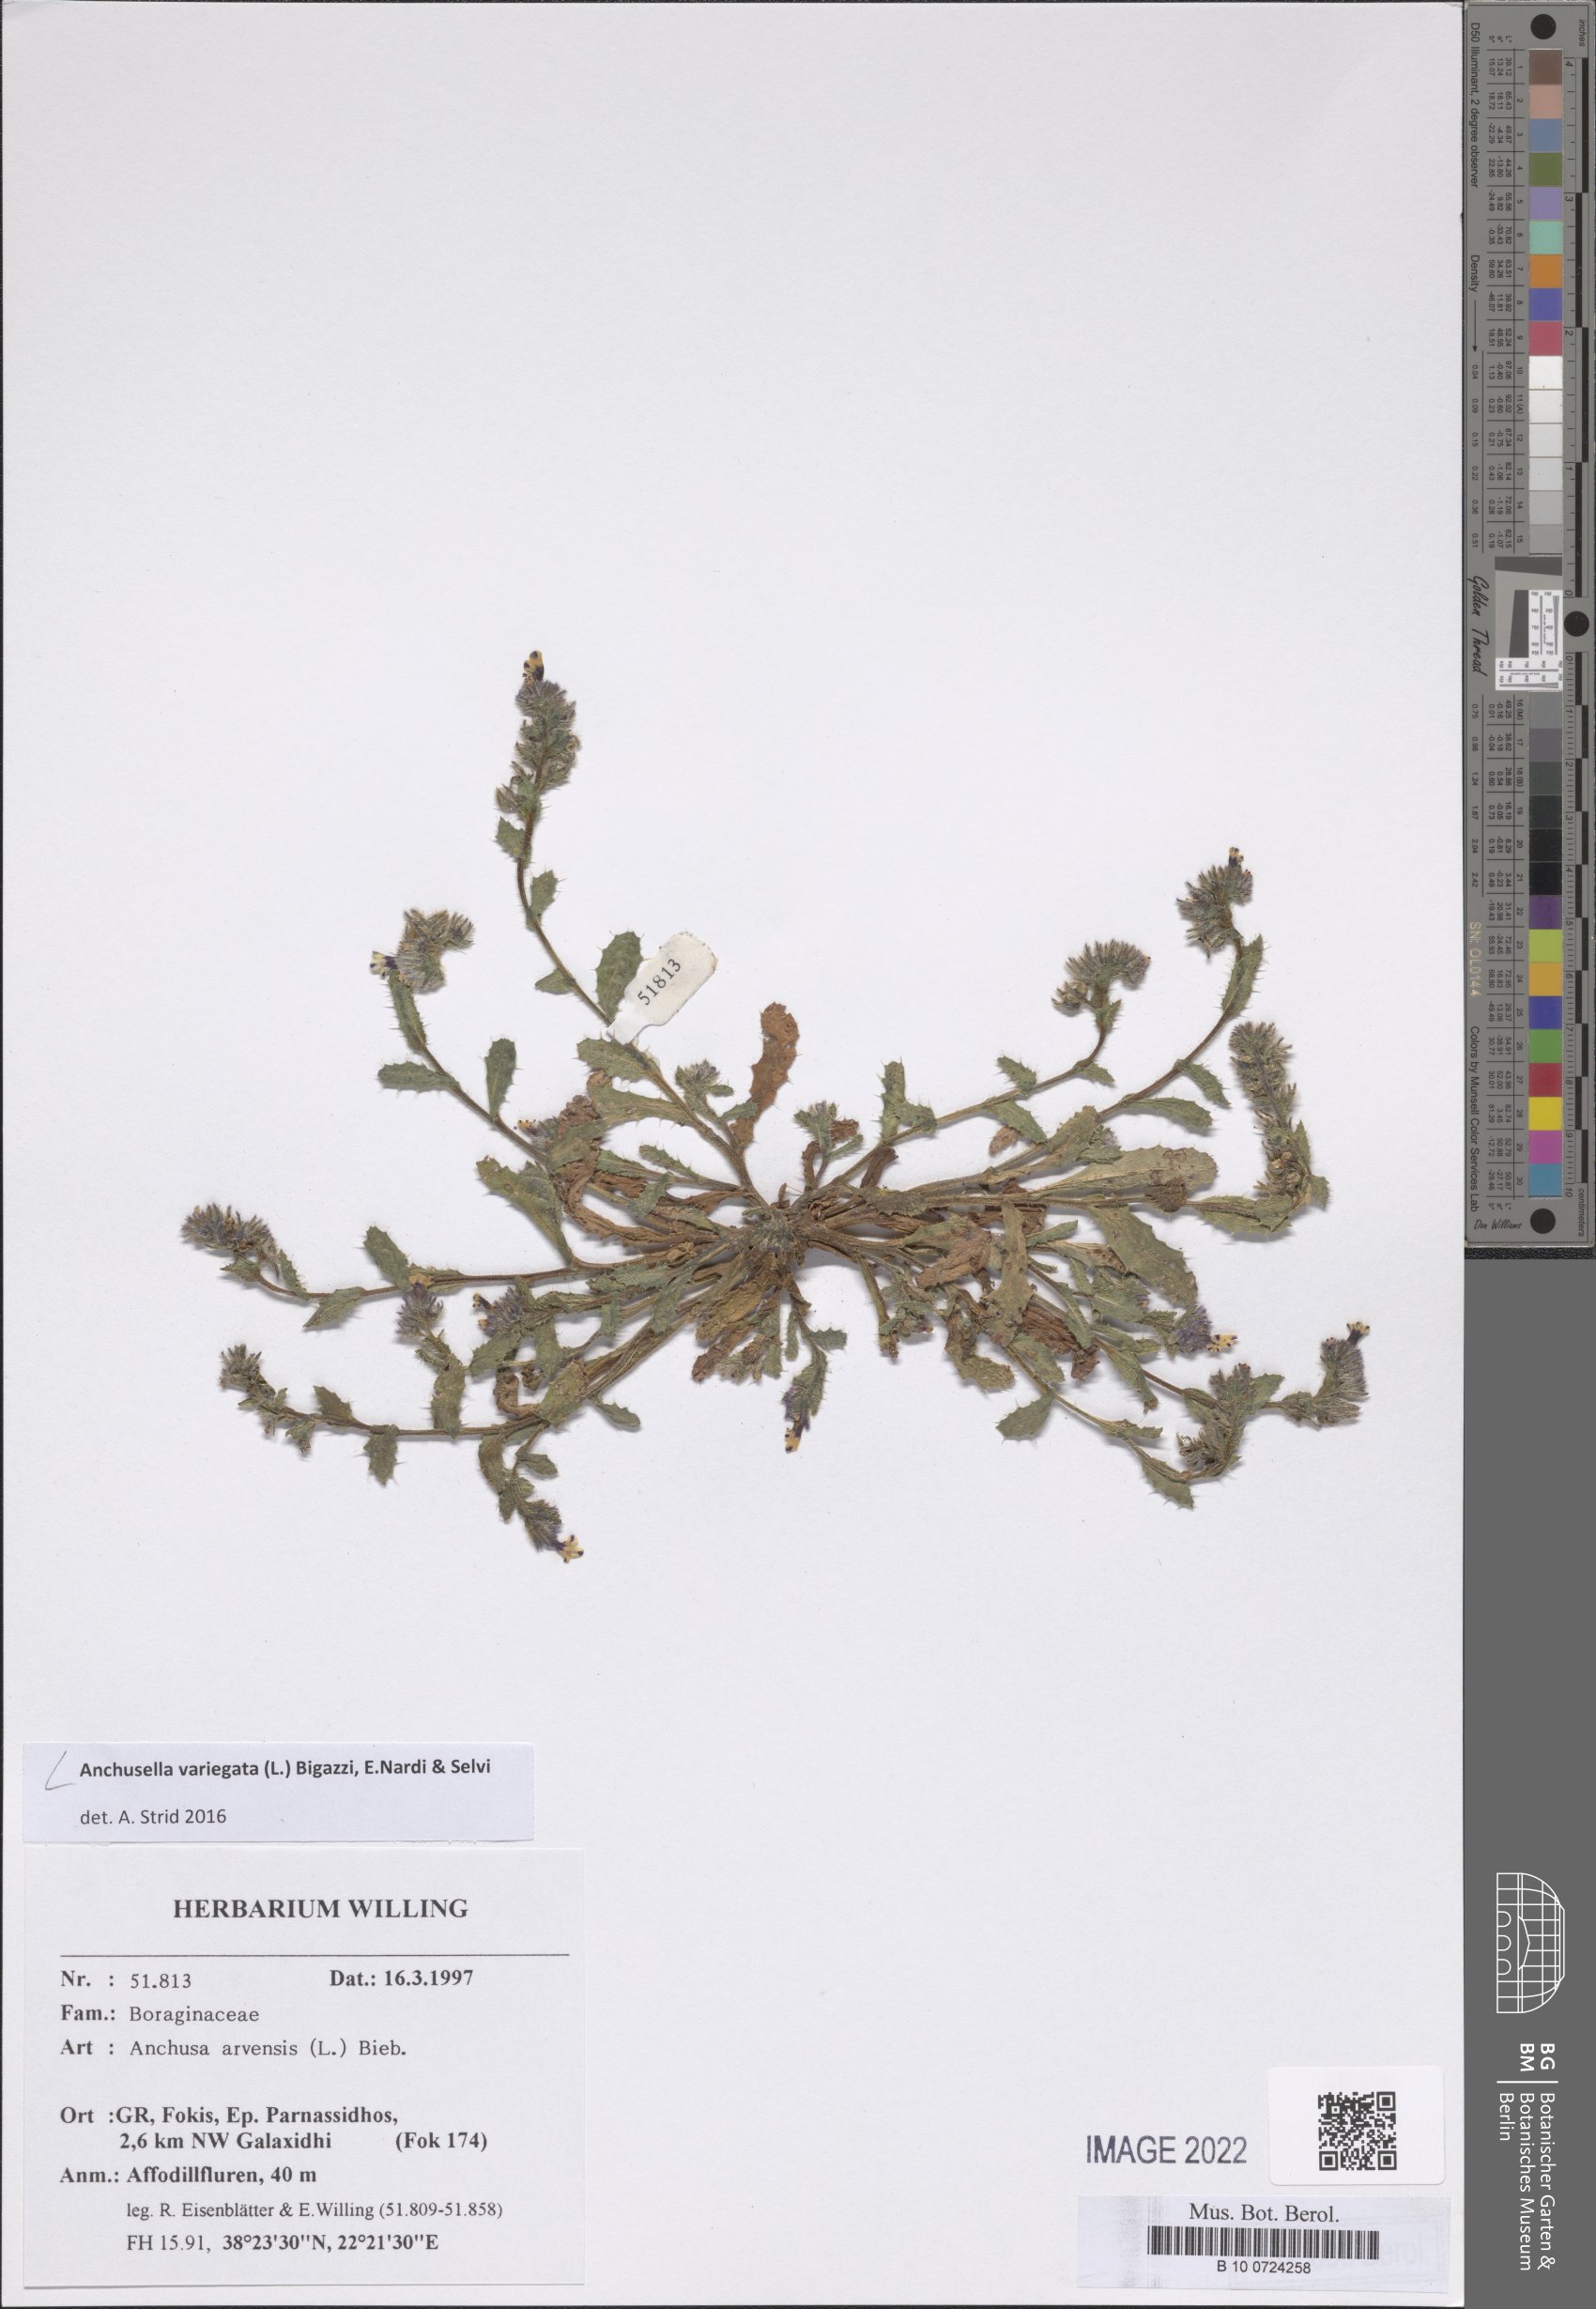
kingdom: Plantae
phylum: Tracheophyta
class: Magnoliopsida
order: Boraginales
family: Boraginaceae
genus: Anchusella
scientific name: Anchusella variegata
